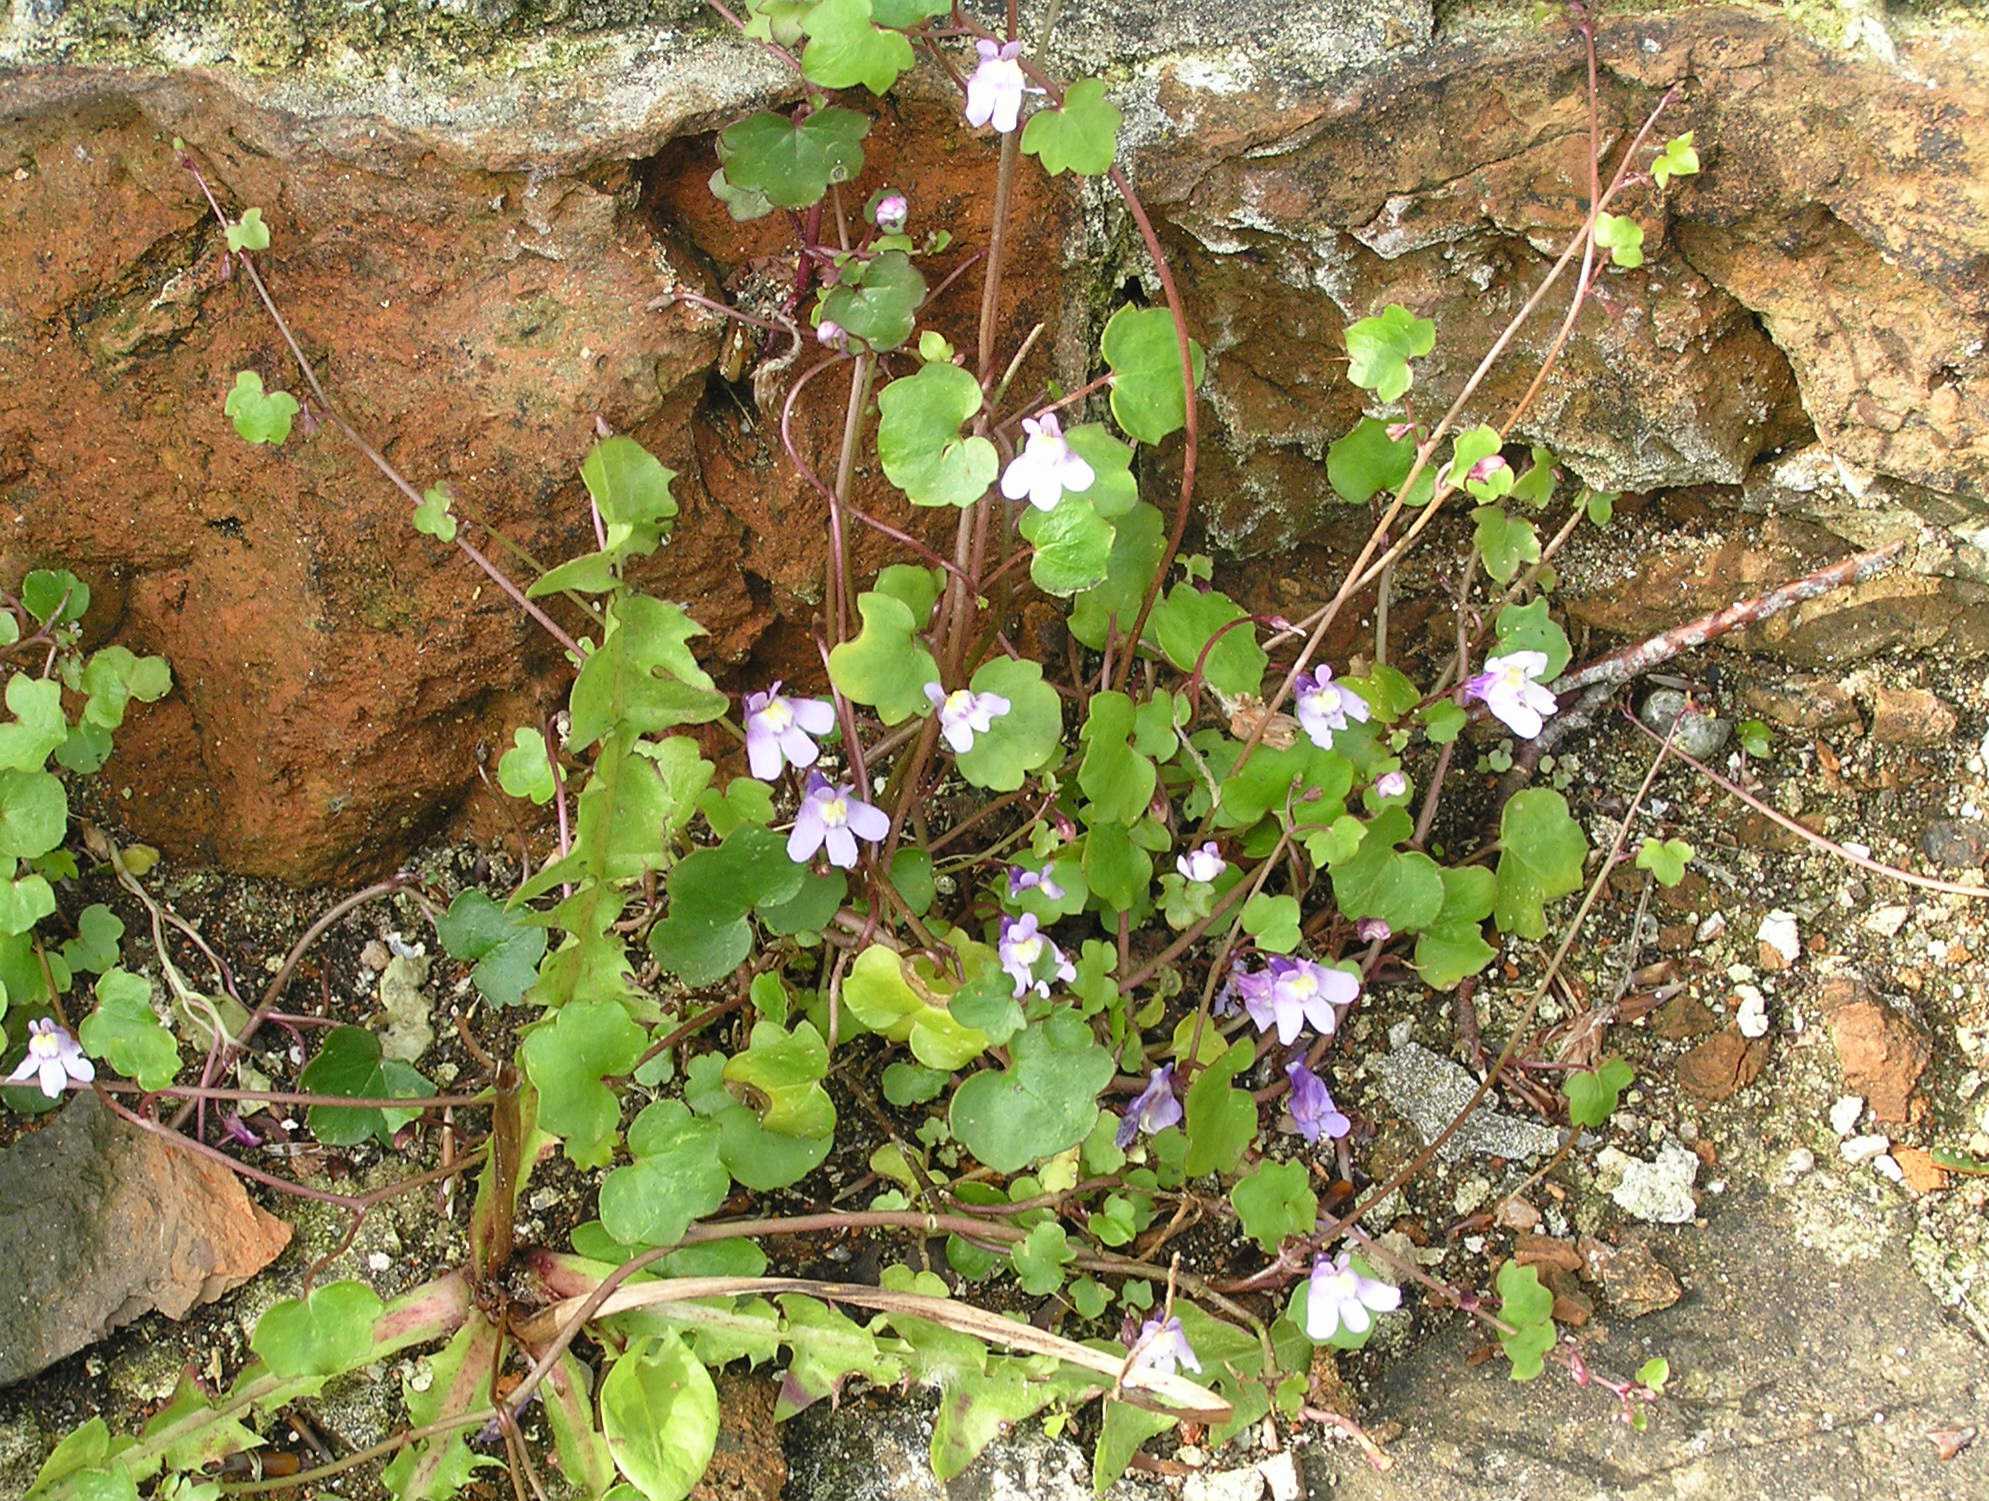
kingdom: Plantae
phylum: Tracheophyta
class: Magnoliopsida
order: Lamiales
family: Plantaginaceae
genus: Cymbalaria
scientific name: Cymbalaria muralis
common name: Vedbend-torskemund
